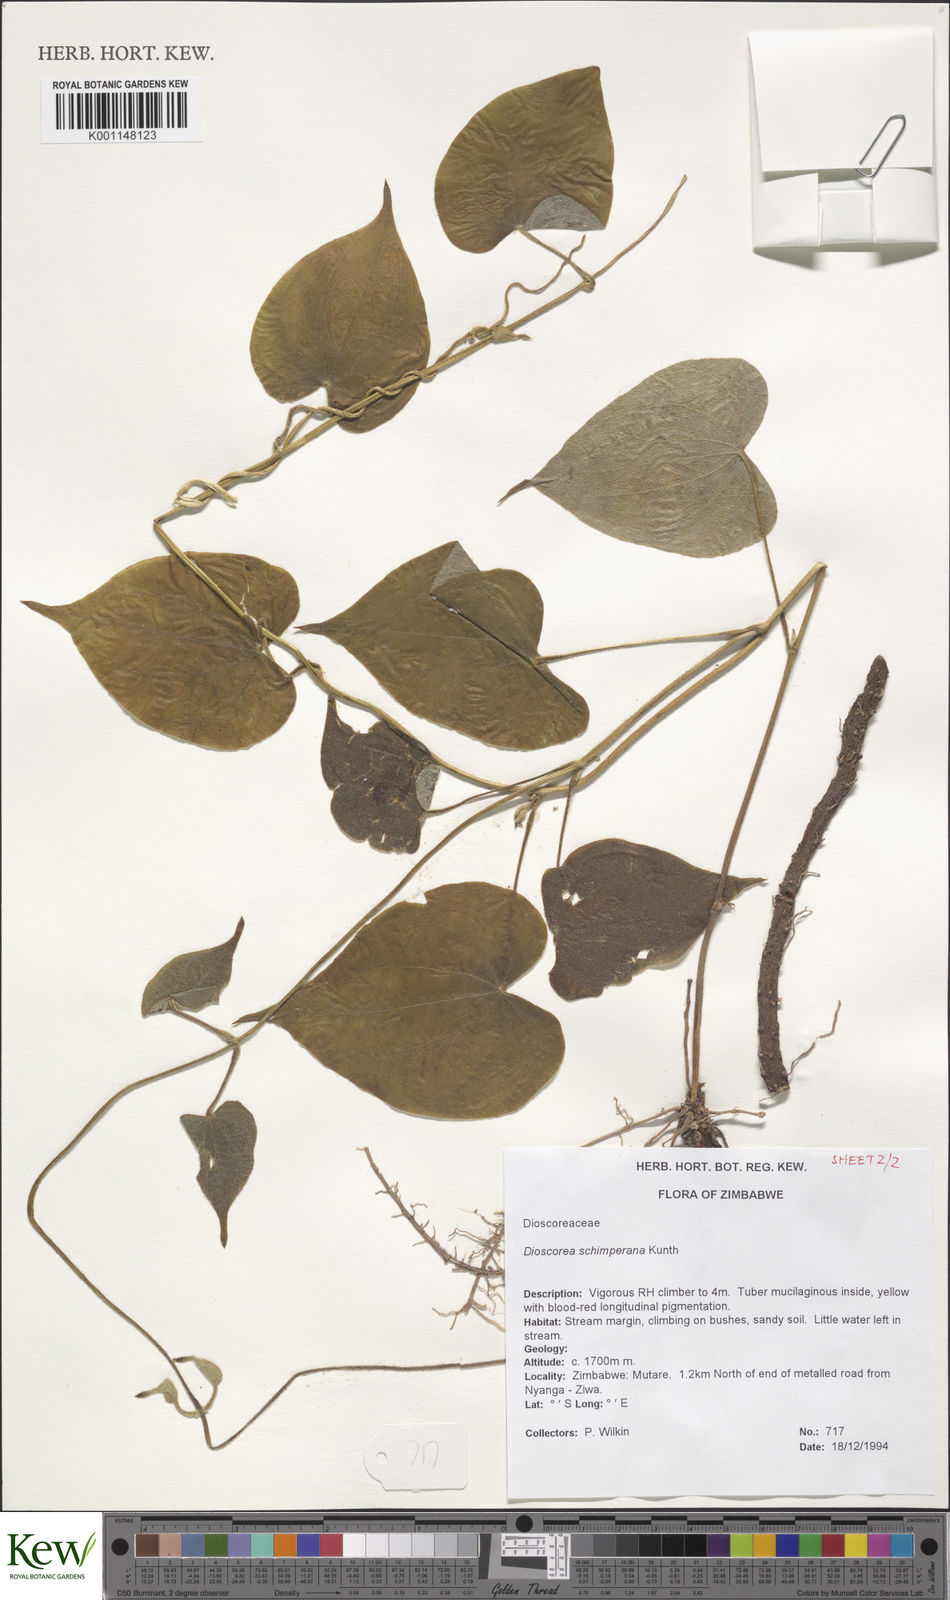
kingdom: Plantae
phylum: Tracheophyta
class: Liliopsida
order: Dioscoreales
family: Dioscoreaceae
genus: Dioscorea
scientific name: Dioscorea schimperiana
